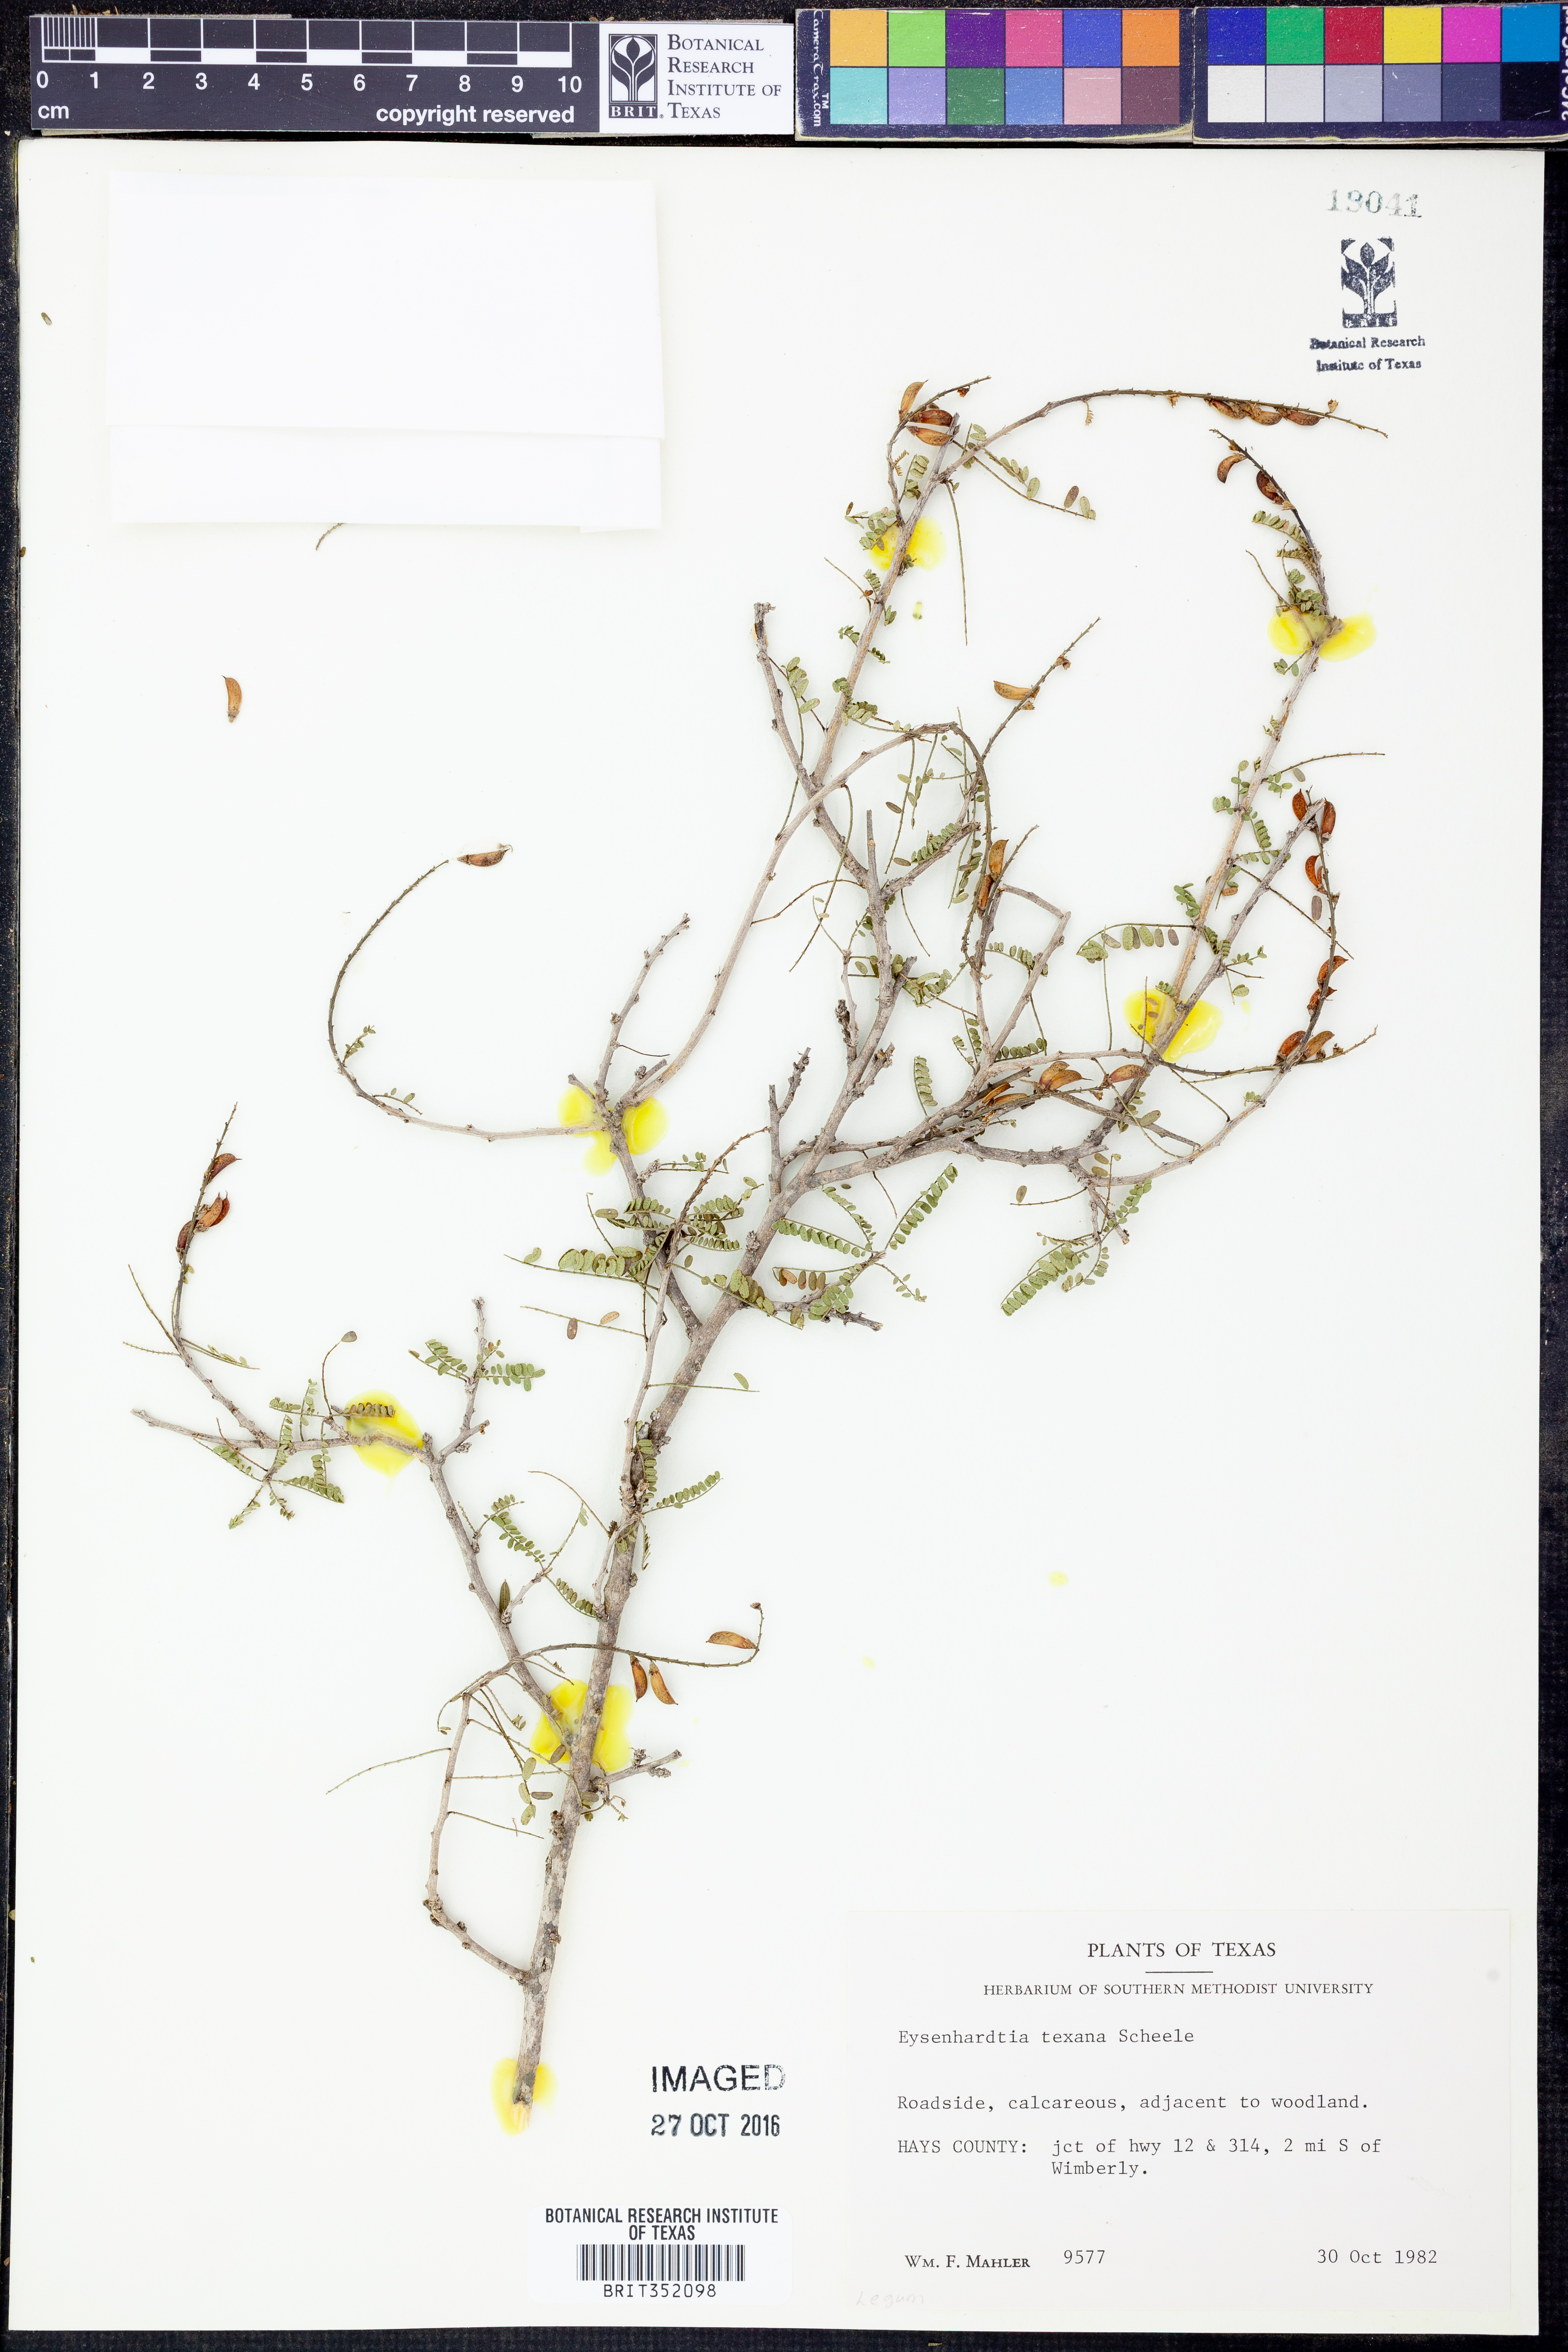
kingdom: Plantae
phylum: Tracheophyta
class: Magnoliopsida
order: Fabales
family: Fabaceae
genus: Eysenhardtia
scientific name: Eysenhardtia texana
